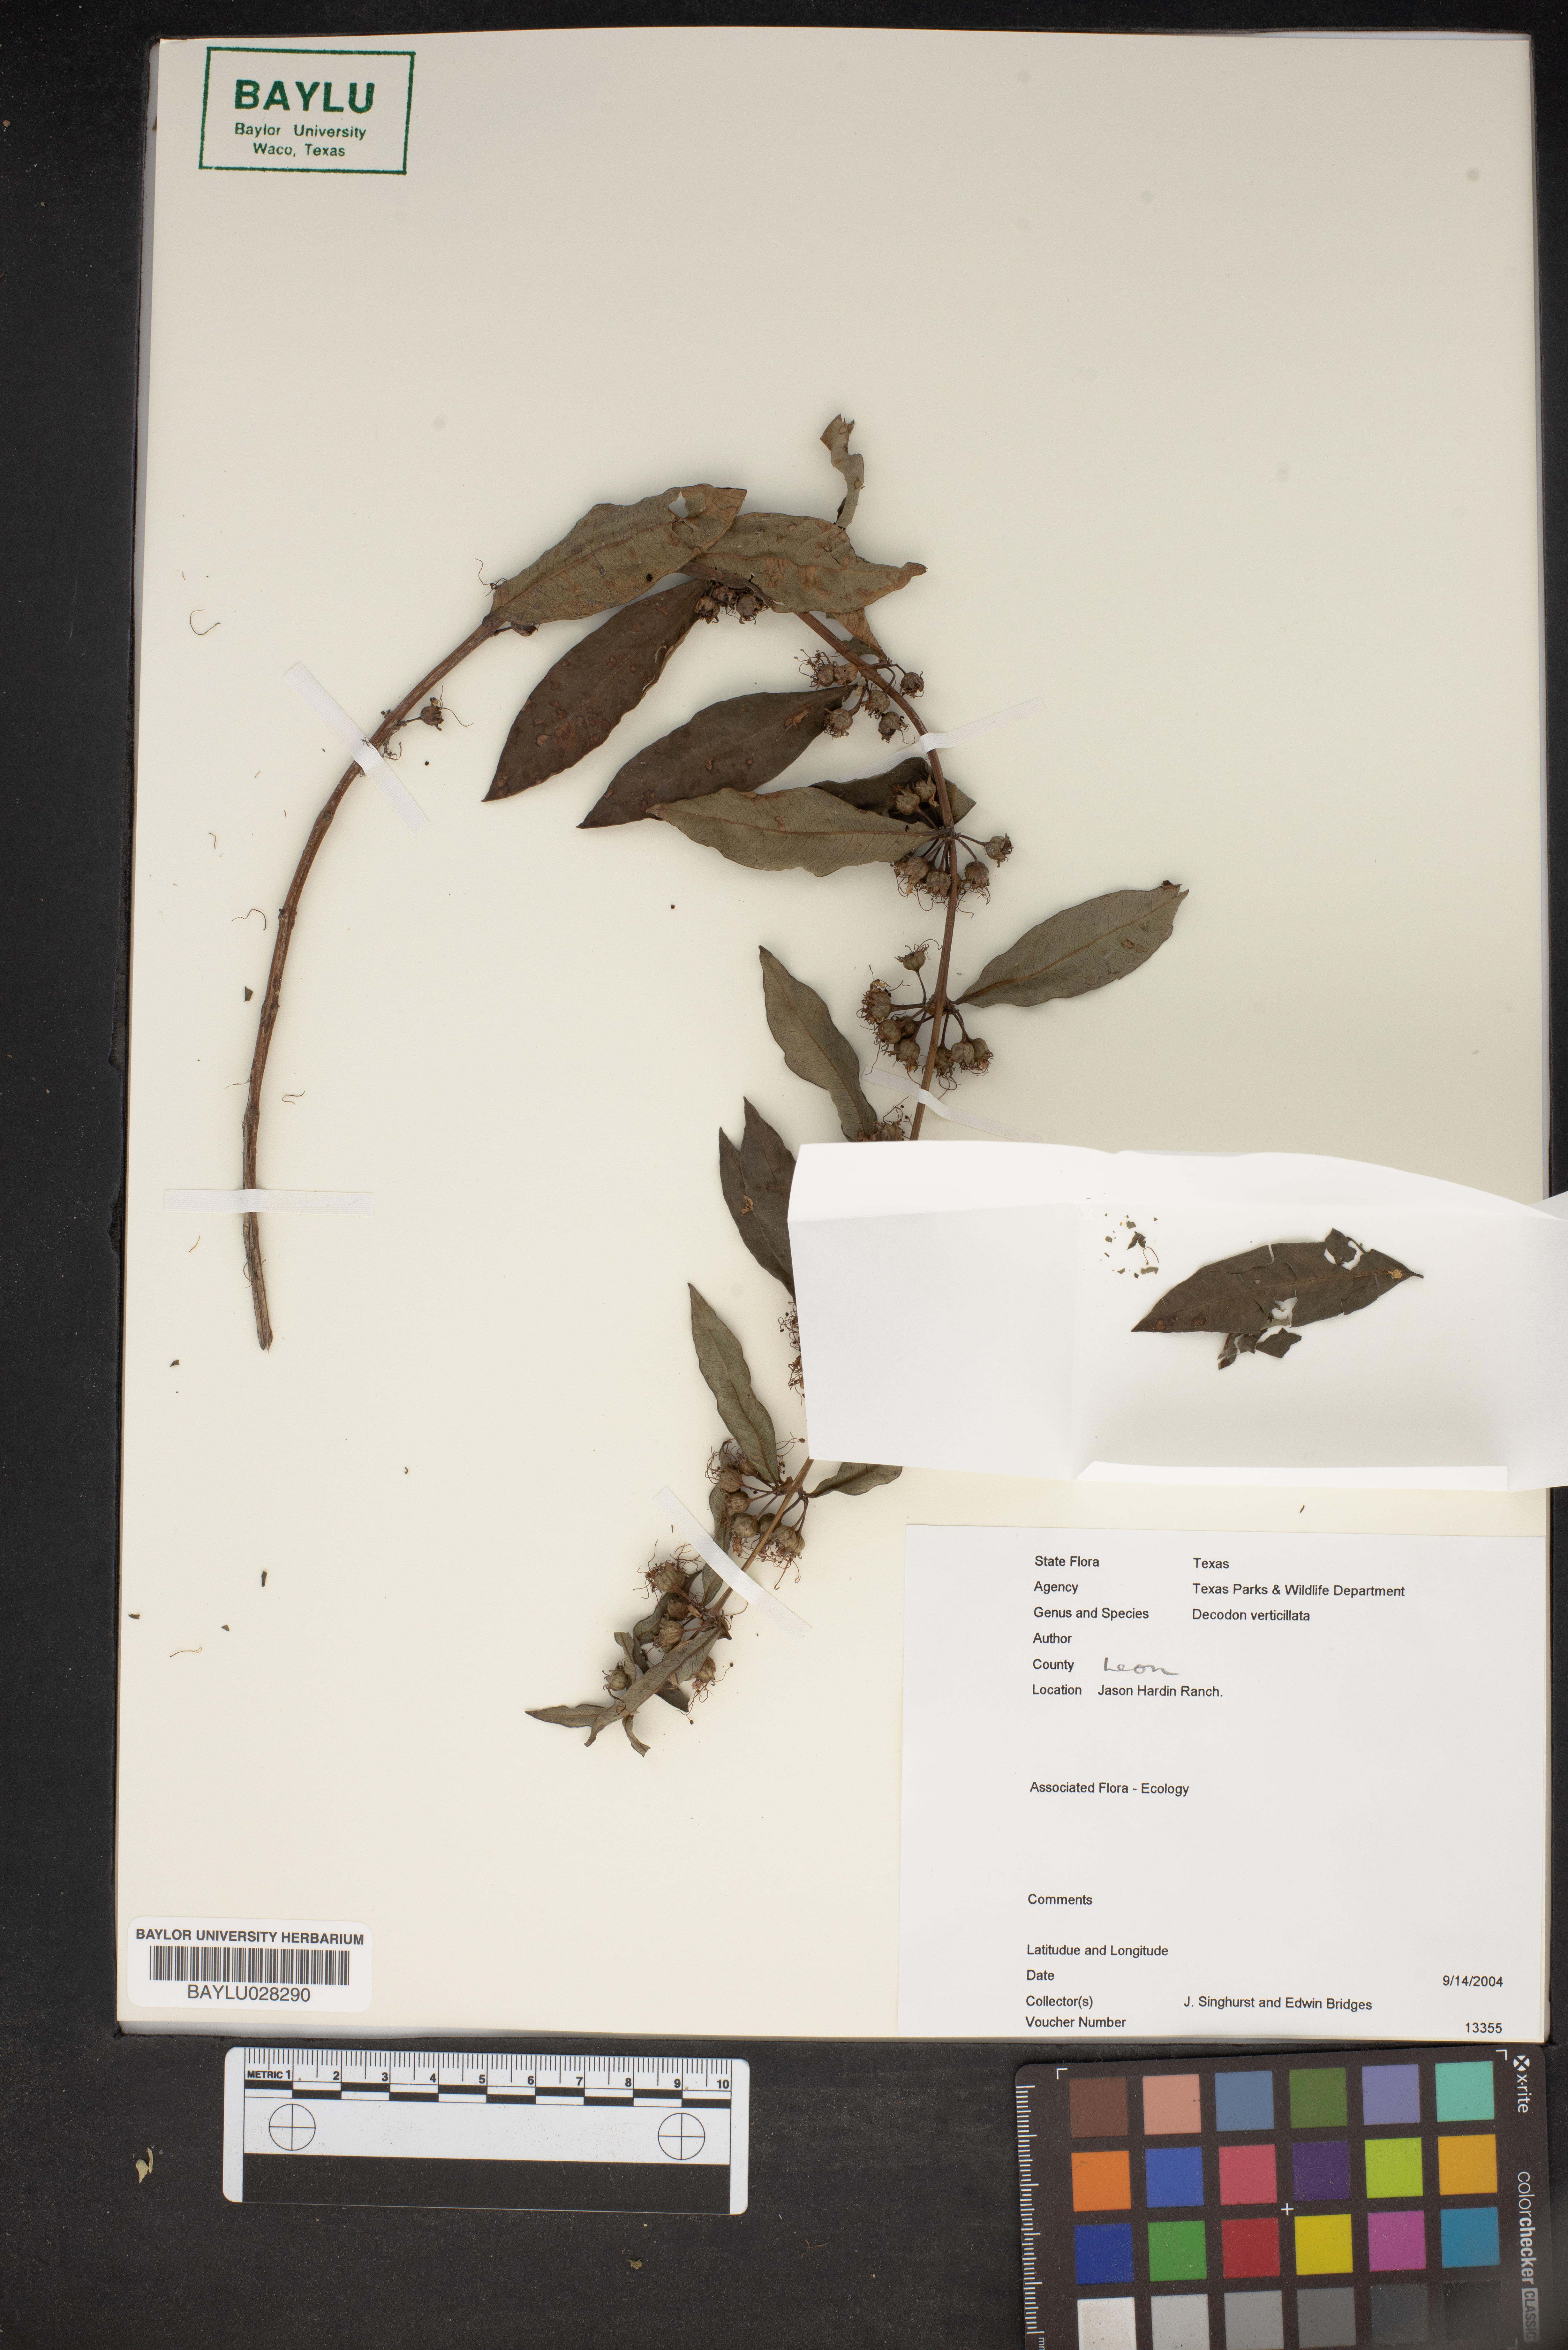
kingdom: Plantae
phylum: Tracheophyta
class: Magnoliopsida
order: Myrtales
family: Lythraceae
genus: Decodon
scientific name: Decodon verticillatus
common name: Hairy swamp loosestrife
